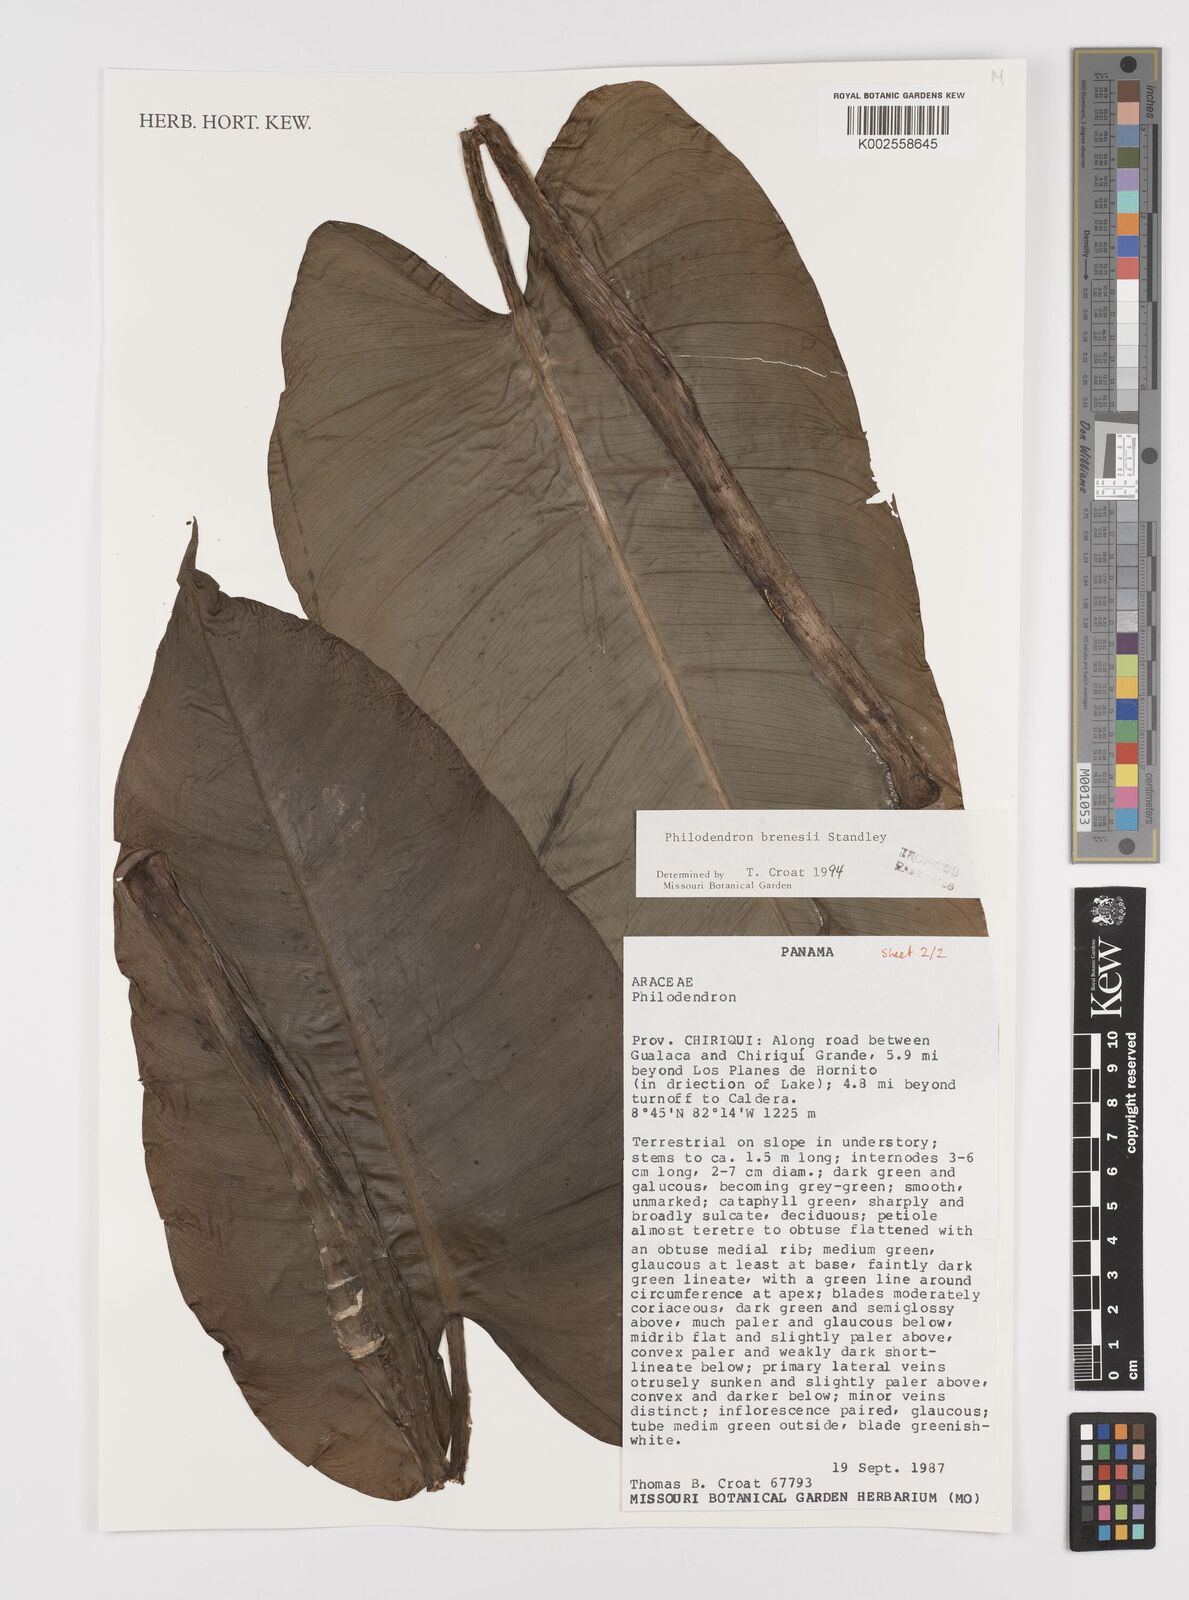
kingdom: Plantae
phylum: Tracheophyta
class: Liliopsida
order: Alismatales
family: Araceae
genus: Philodendron
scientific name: Philodendron brenesii
